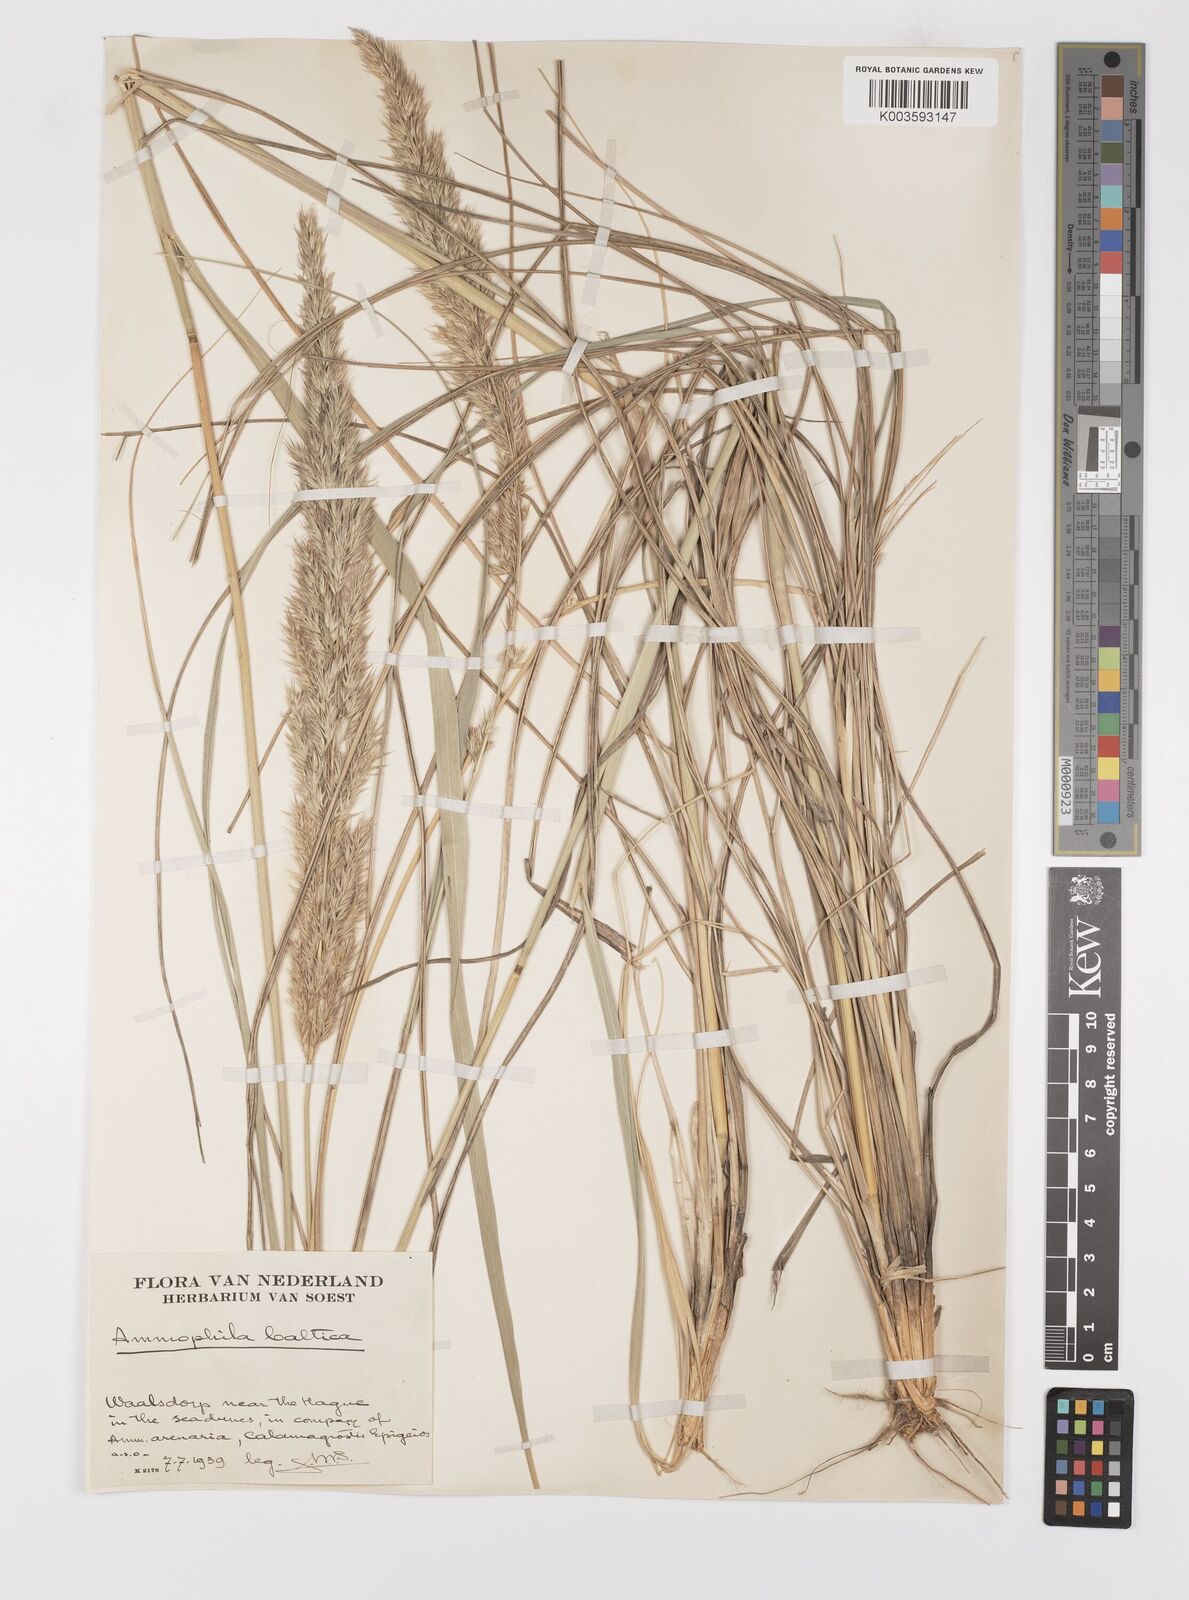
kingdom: Plantae
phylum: Tracheophyta
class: Liliopsida
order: Poales
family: Poaceae
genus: Calamagrostis
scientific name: Calamagrostis baltica
